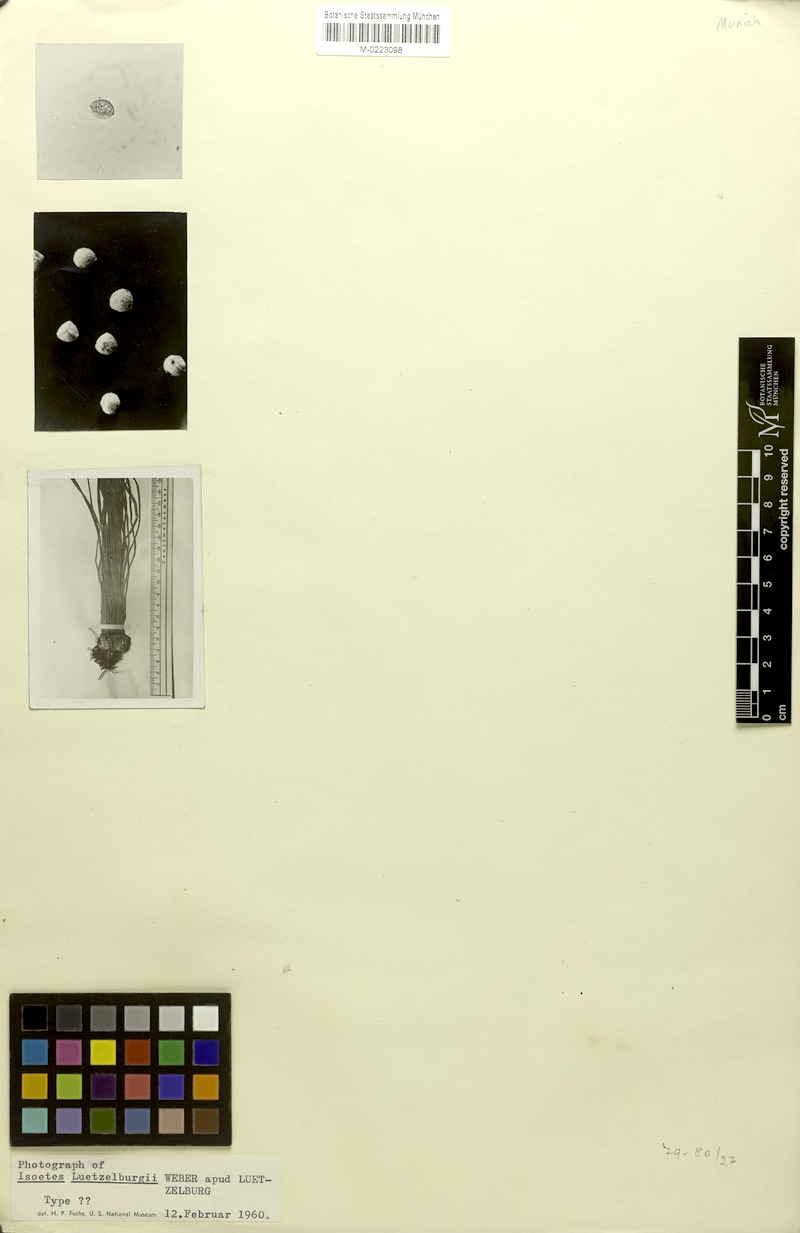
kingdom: Plantae
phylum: Tracheophyta
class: Lycopodiopsida
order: Isoetales
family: Isoetaceae
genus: Isoetes
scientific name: Isoetes luetzelburgii
